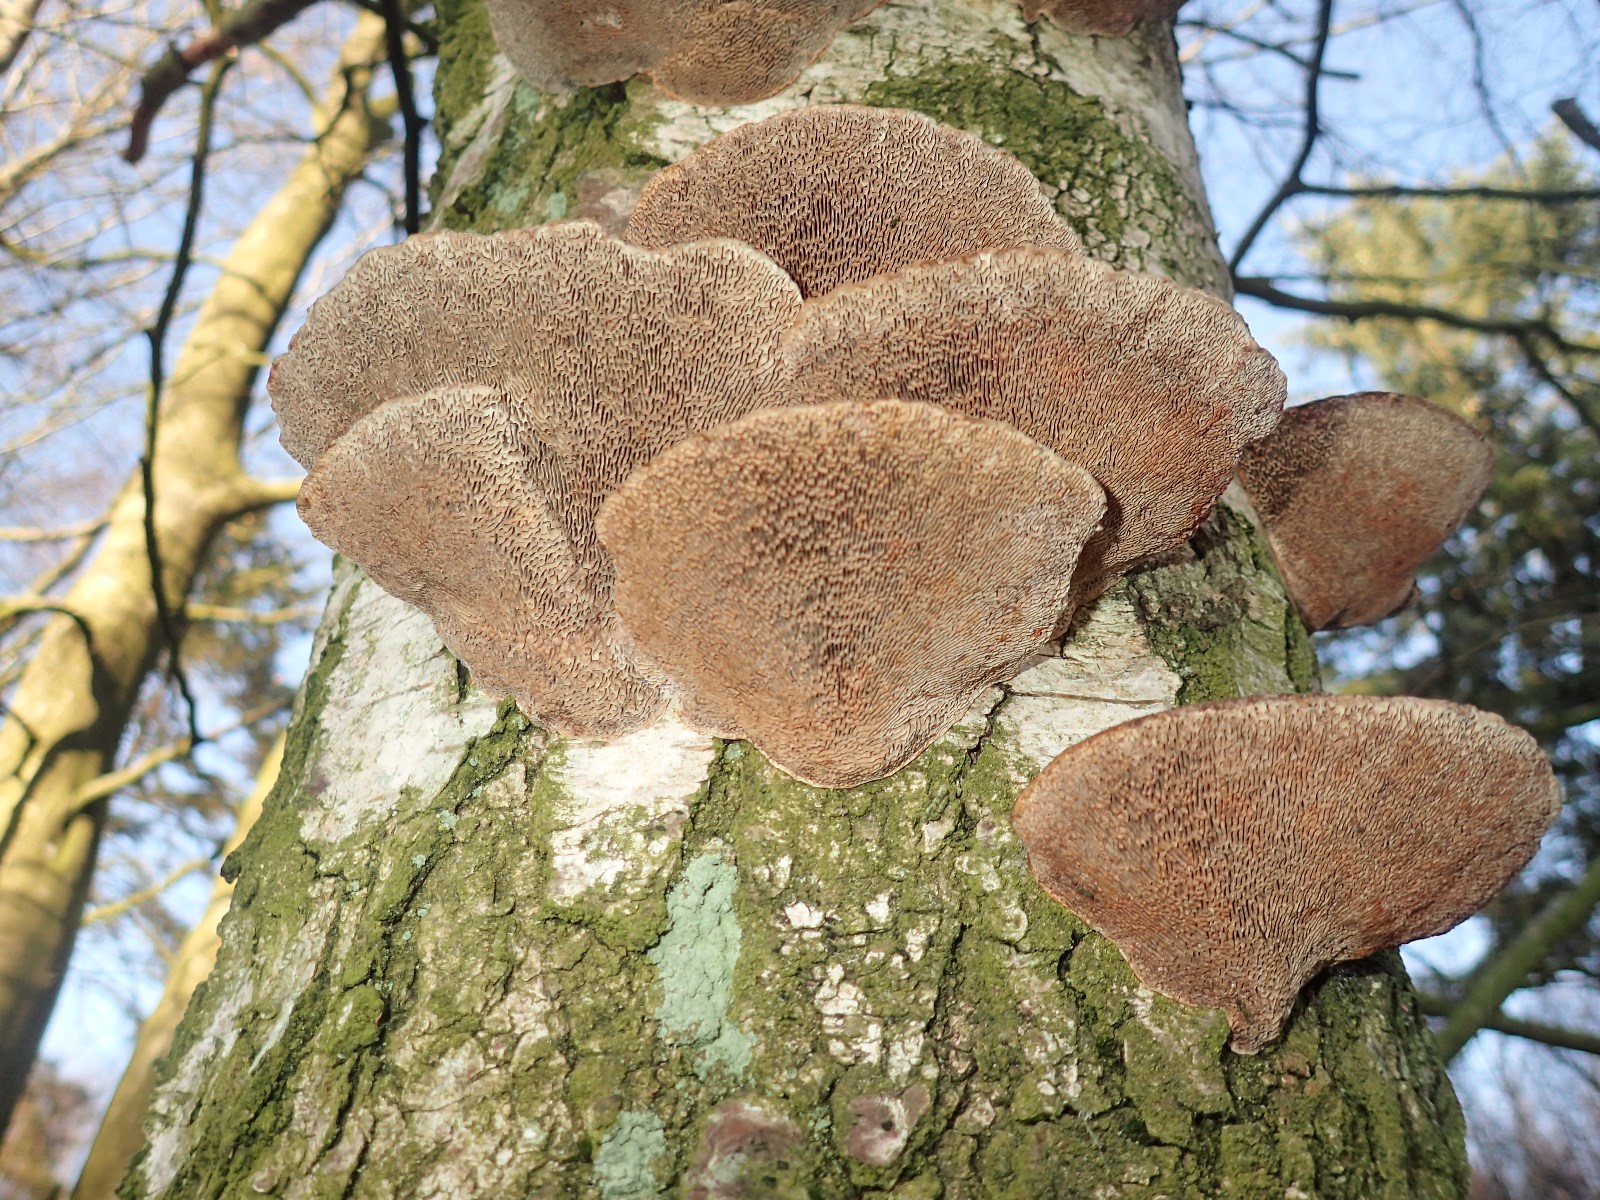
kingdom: Fungi
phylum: Basidiomycota
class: Agaricomycetes
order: Polyporales
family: Polyporaceae
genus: Daedaleopsis
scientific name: Daedaleopsis confragosa
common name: rødmende læderporesvamp
